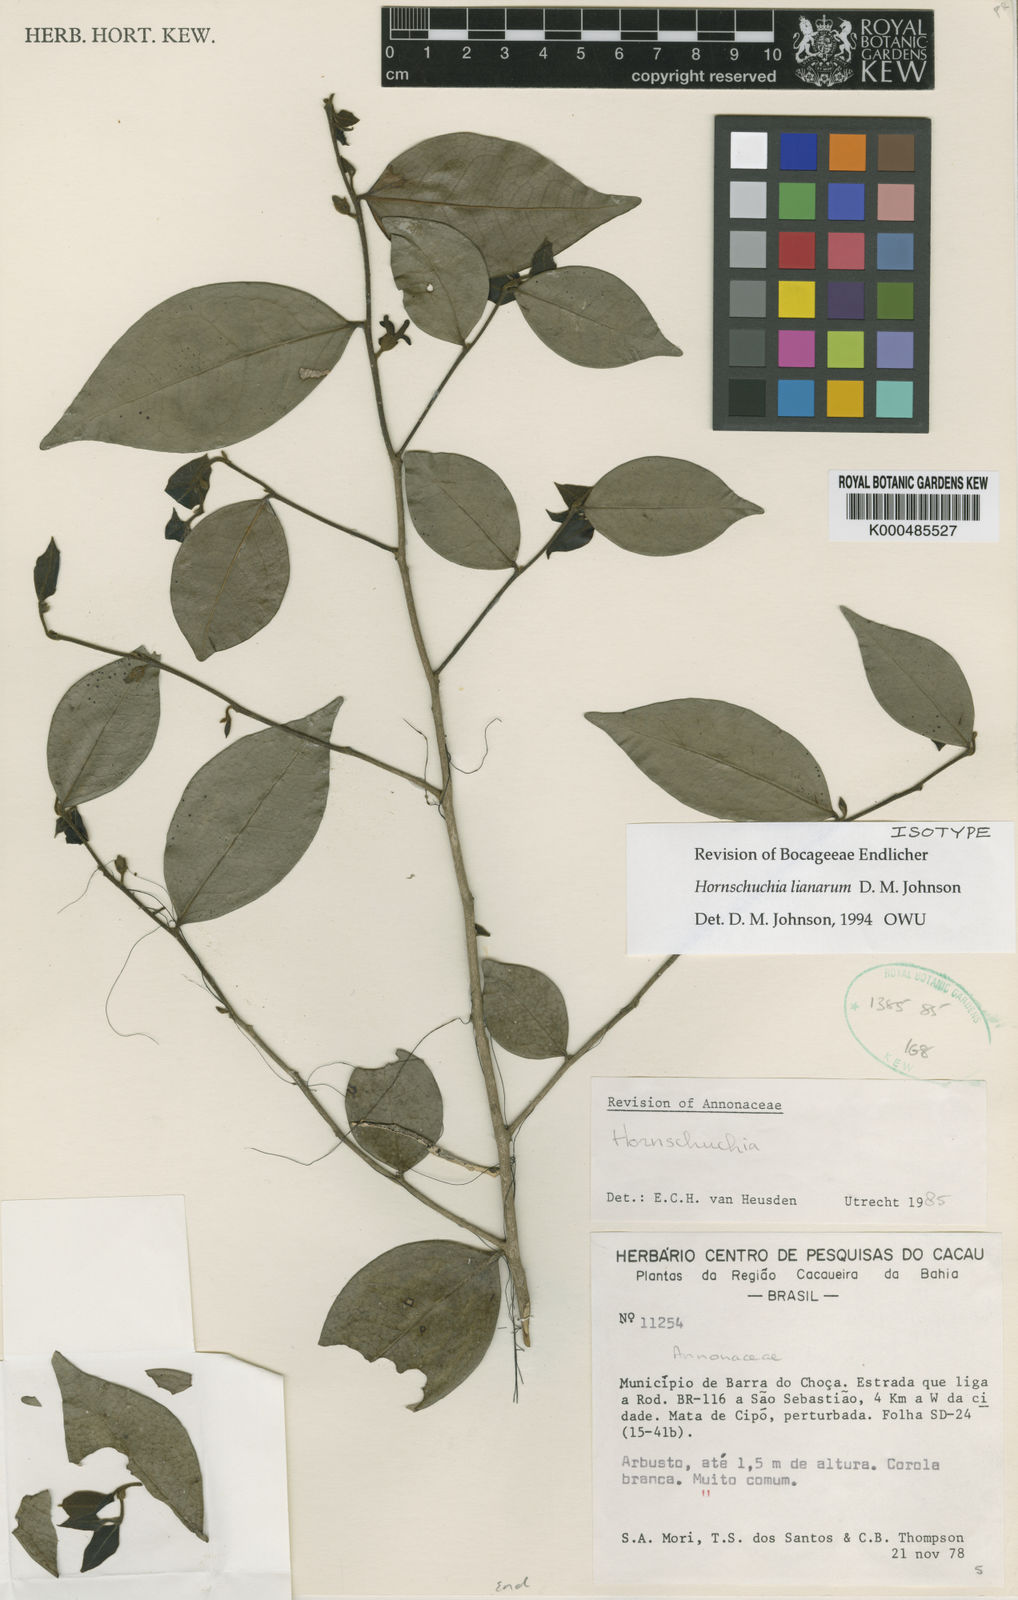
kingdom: Plantae
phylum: Tracheophyta
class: Magnoliopsida
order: Magnoliales
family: Annonaceae
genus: Hornschuchia
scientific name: Hornschuchia lianarum
